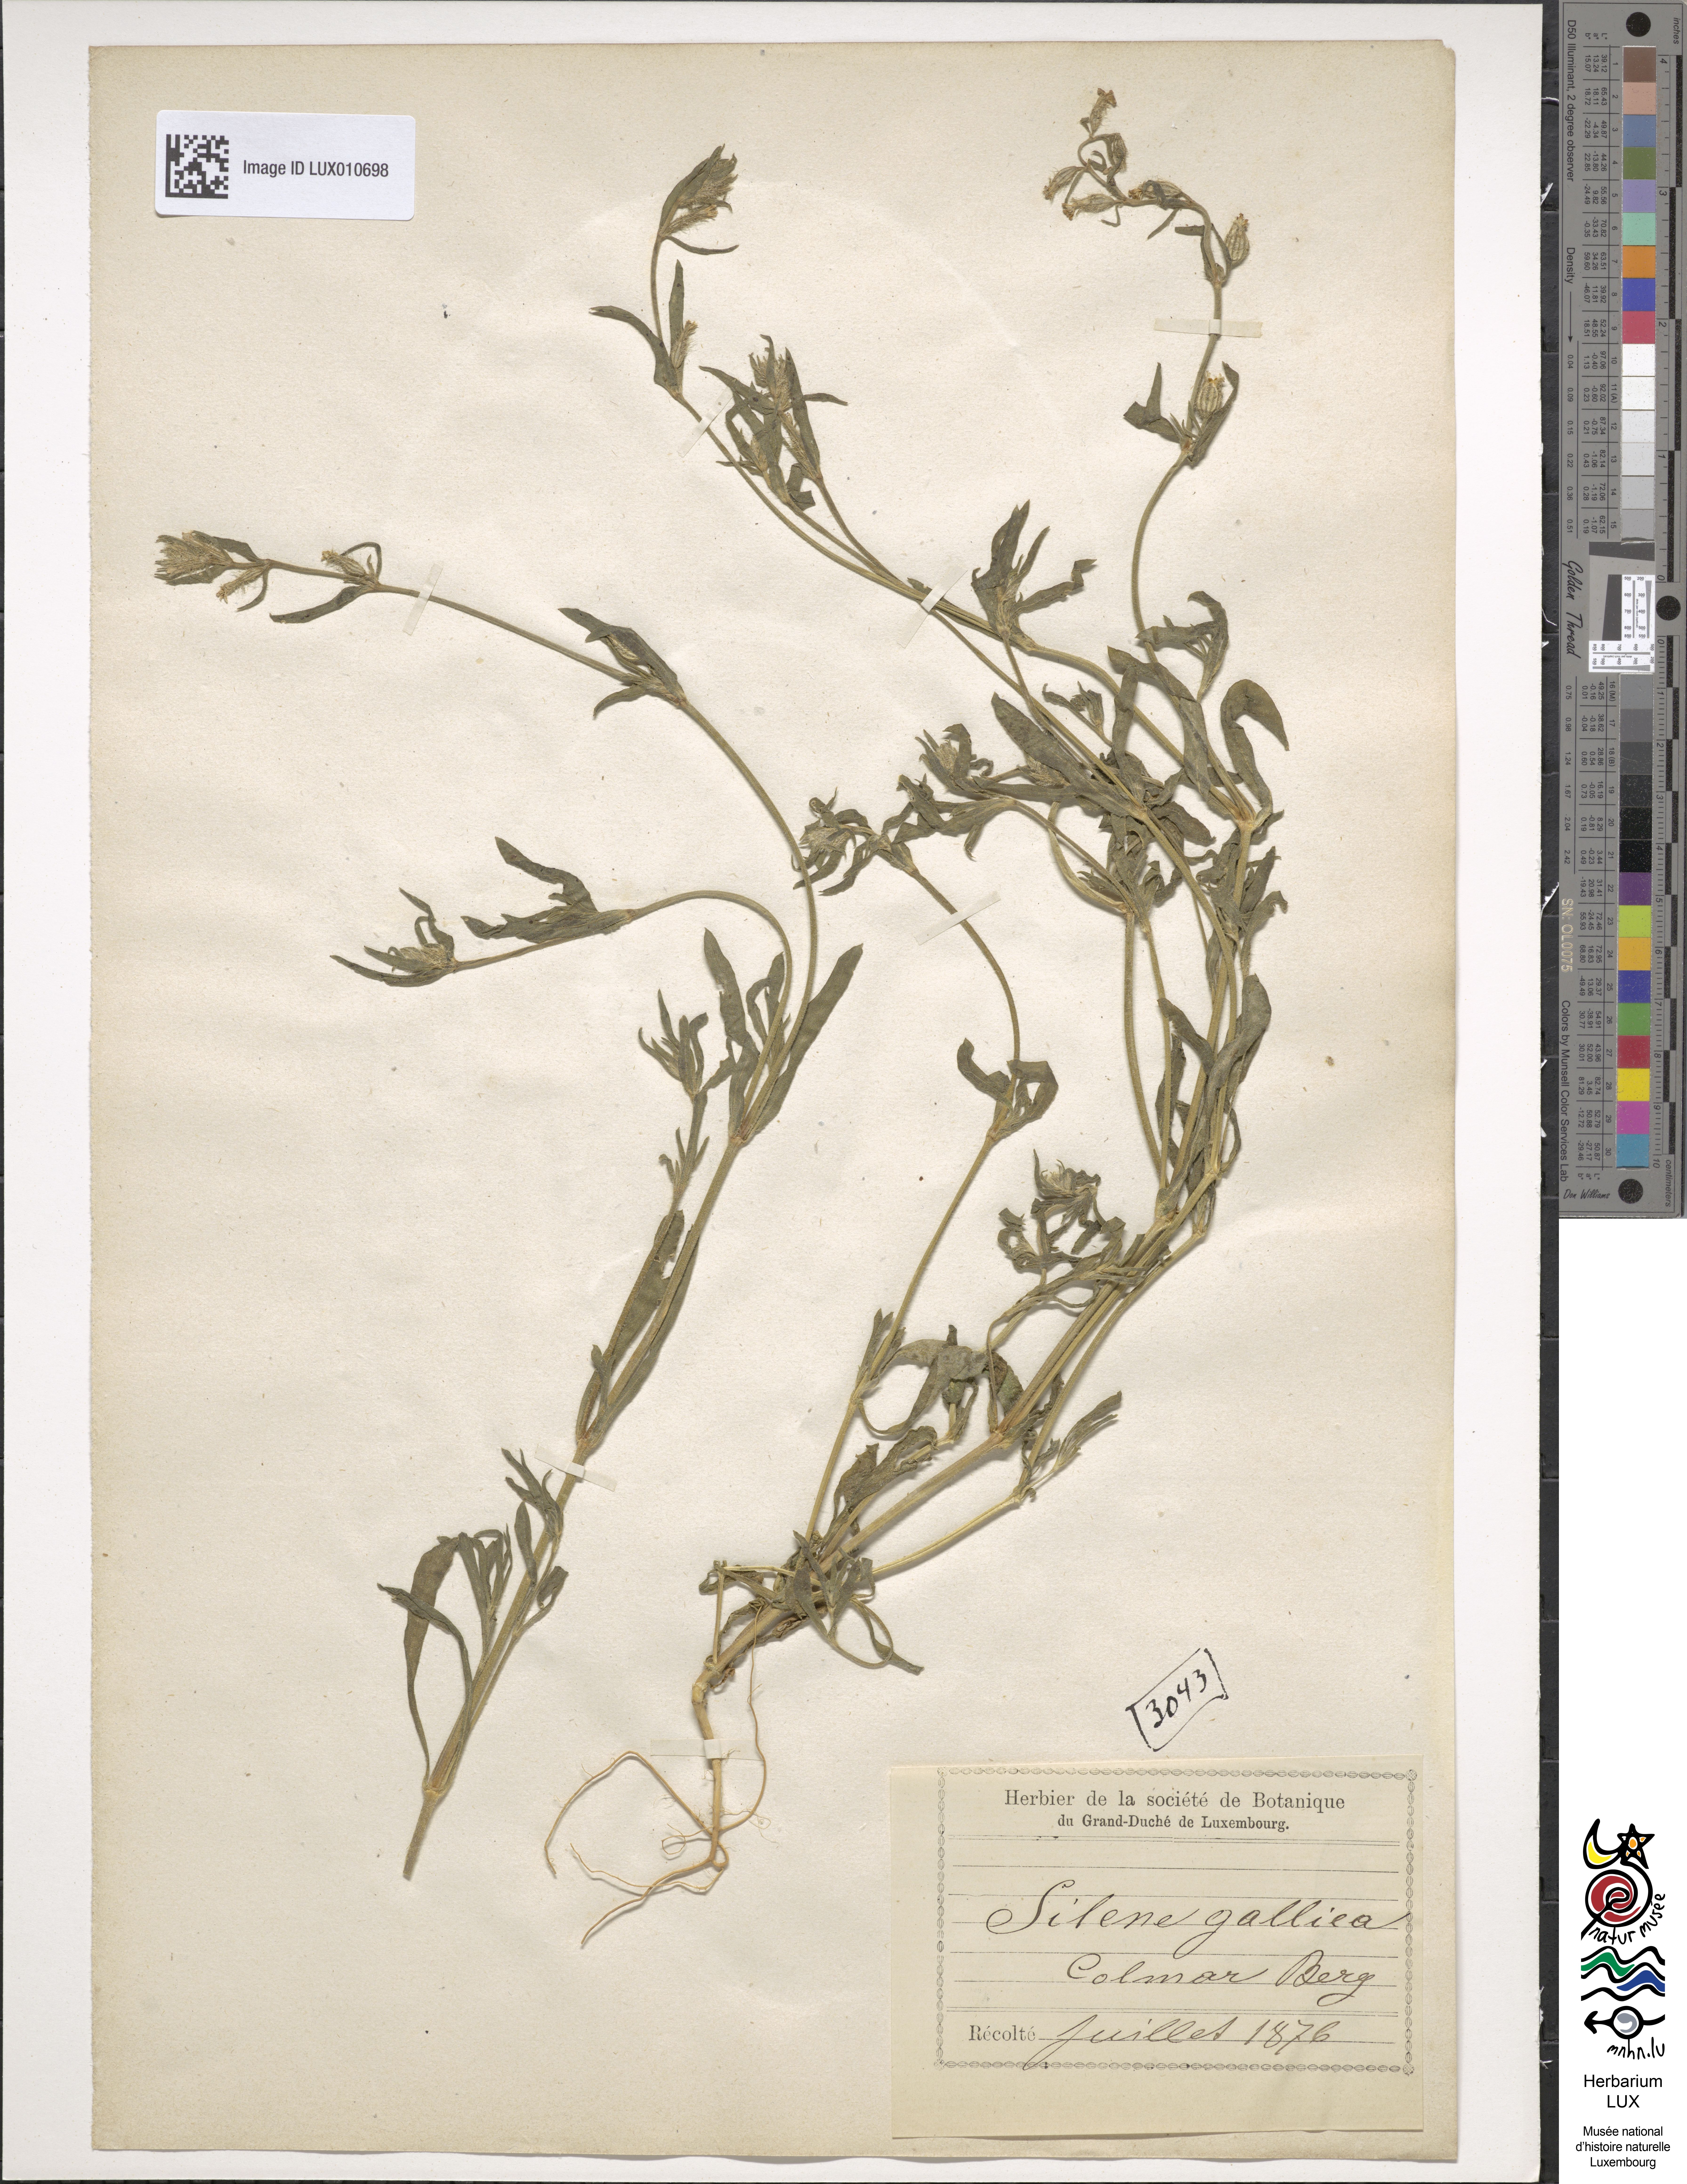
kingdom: Plantae
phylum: Tracheophyta
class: Magnoliopsida
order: Caryophyllales
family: Caryophyllaceae
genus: Silene
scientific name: Silene gallica
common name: Small-flowered catchfly
